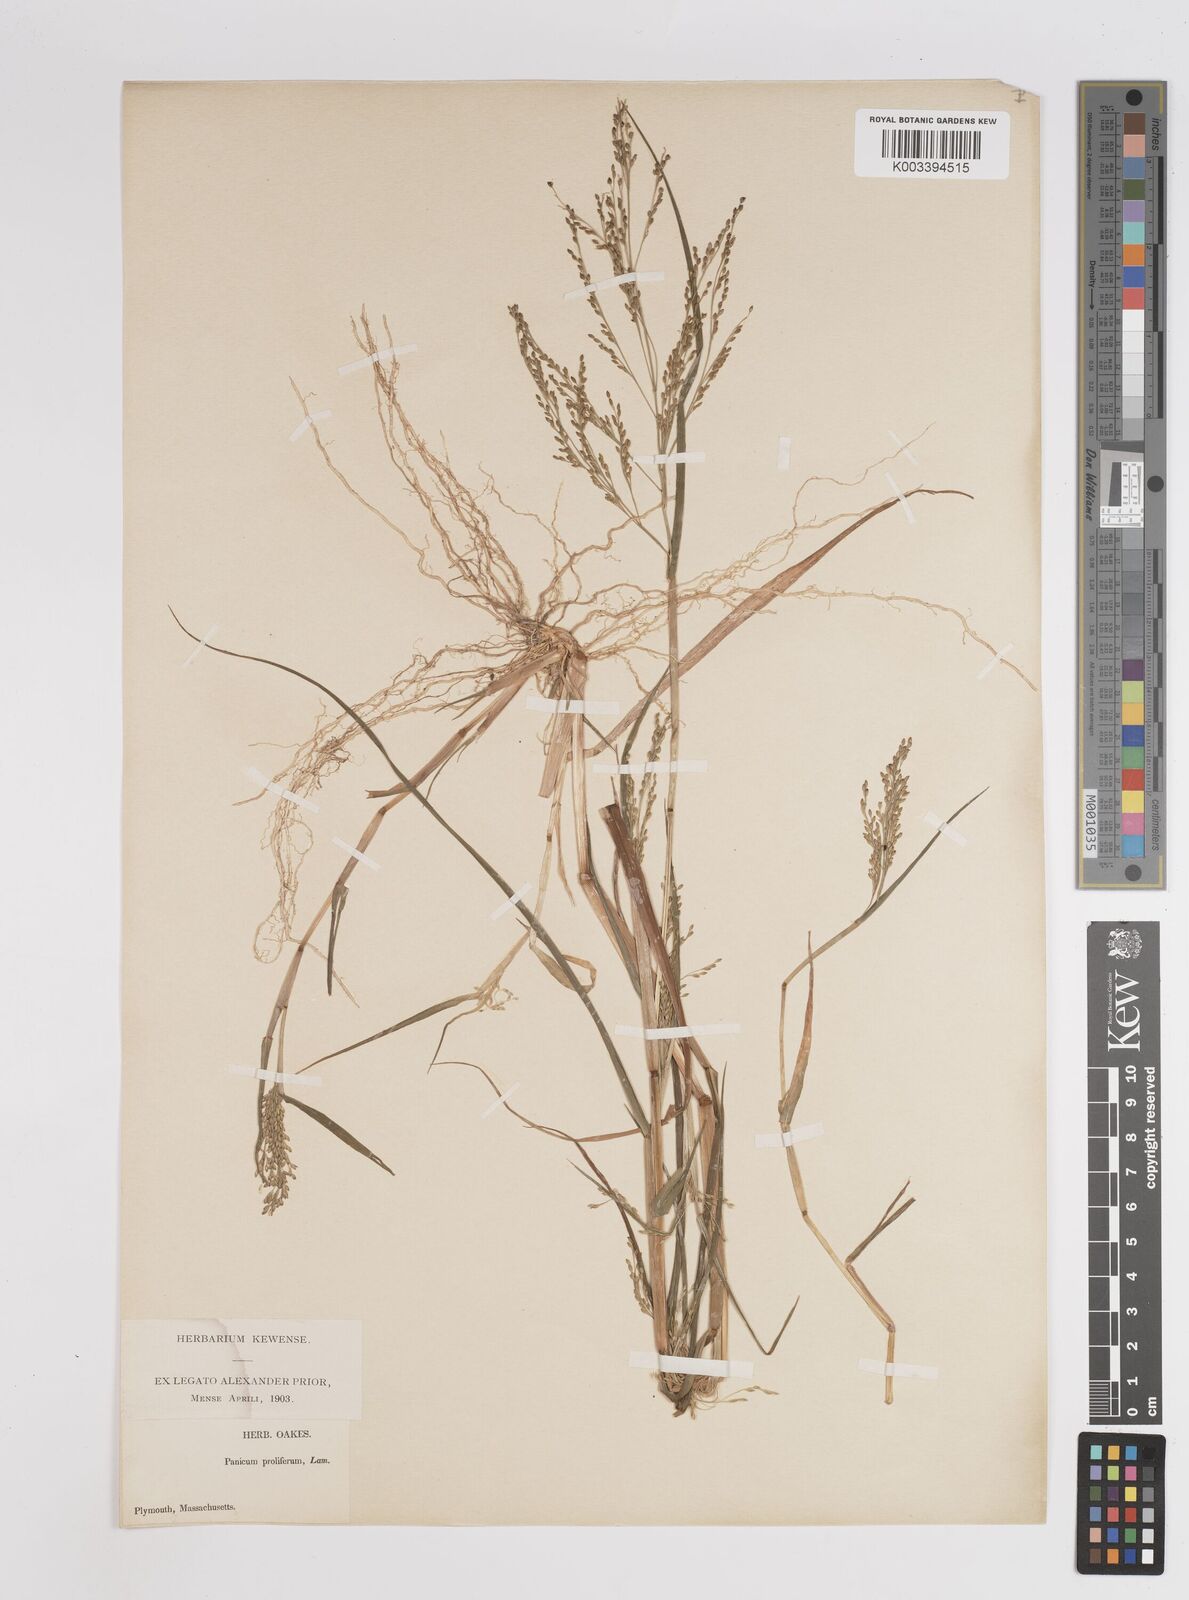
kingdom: Plantae
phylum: Tracheophyta
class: Liliopsida
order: Poales
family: Poaceae
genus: Panicum
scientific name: Panicum dichotomiflorum
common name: Autumn millet
